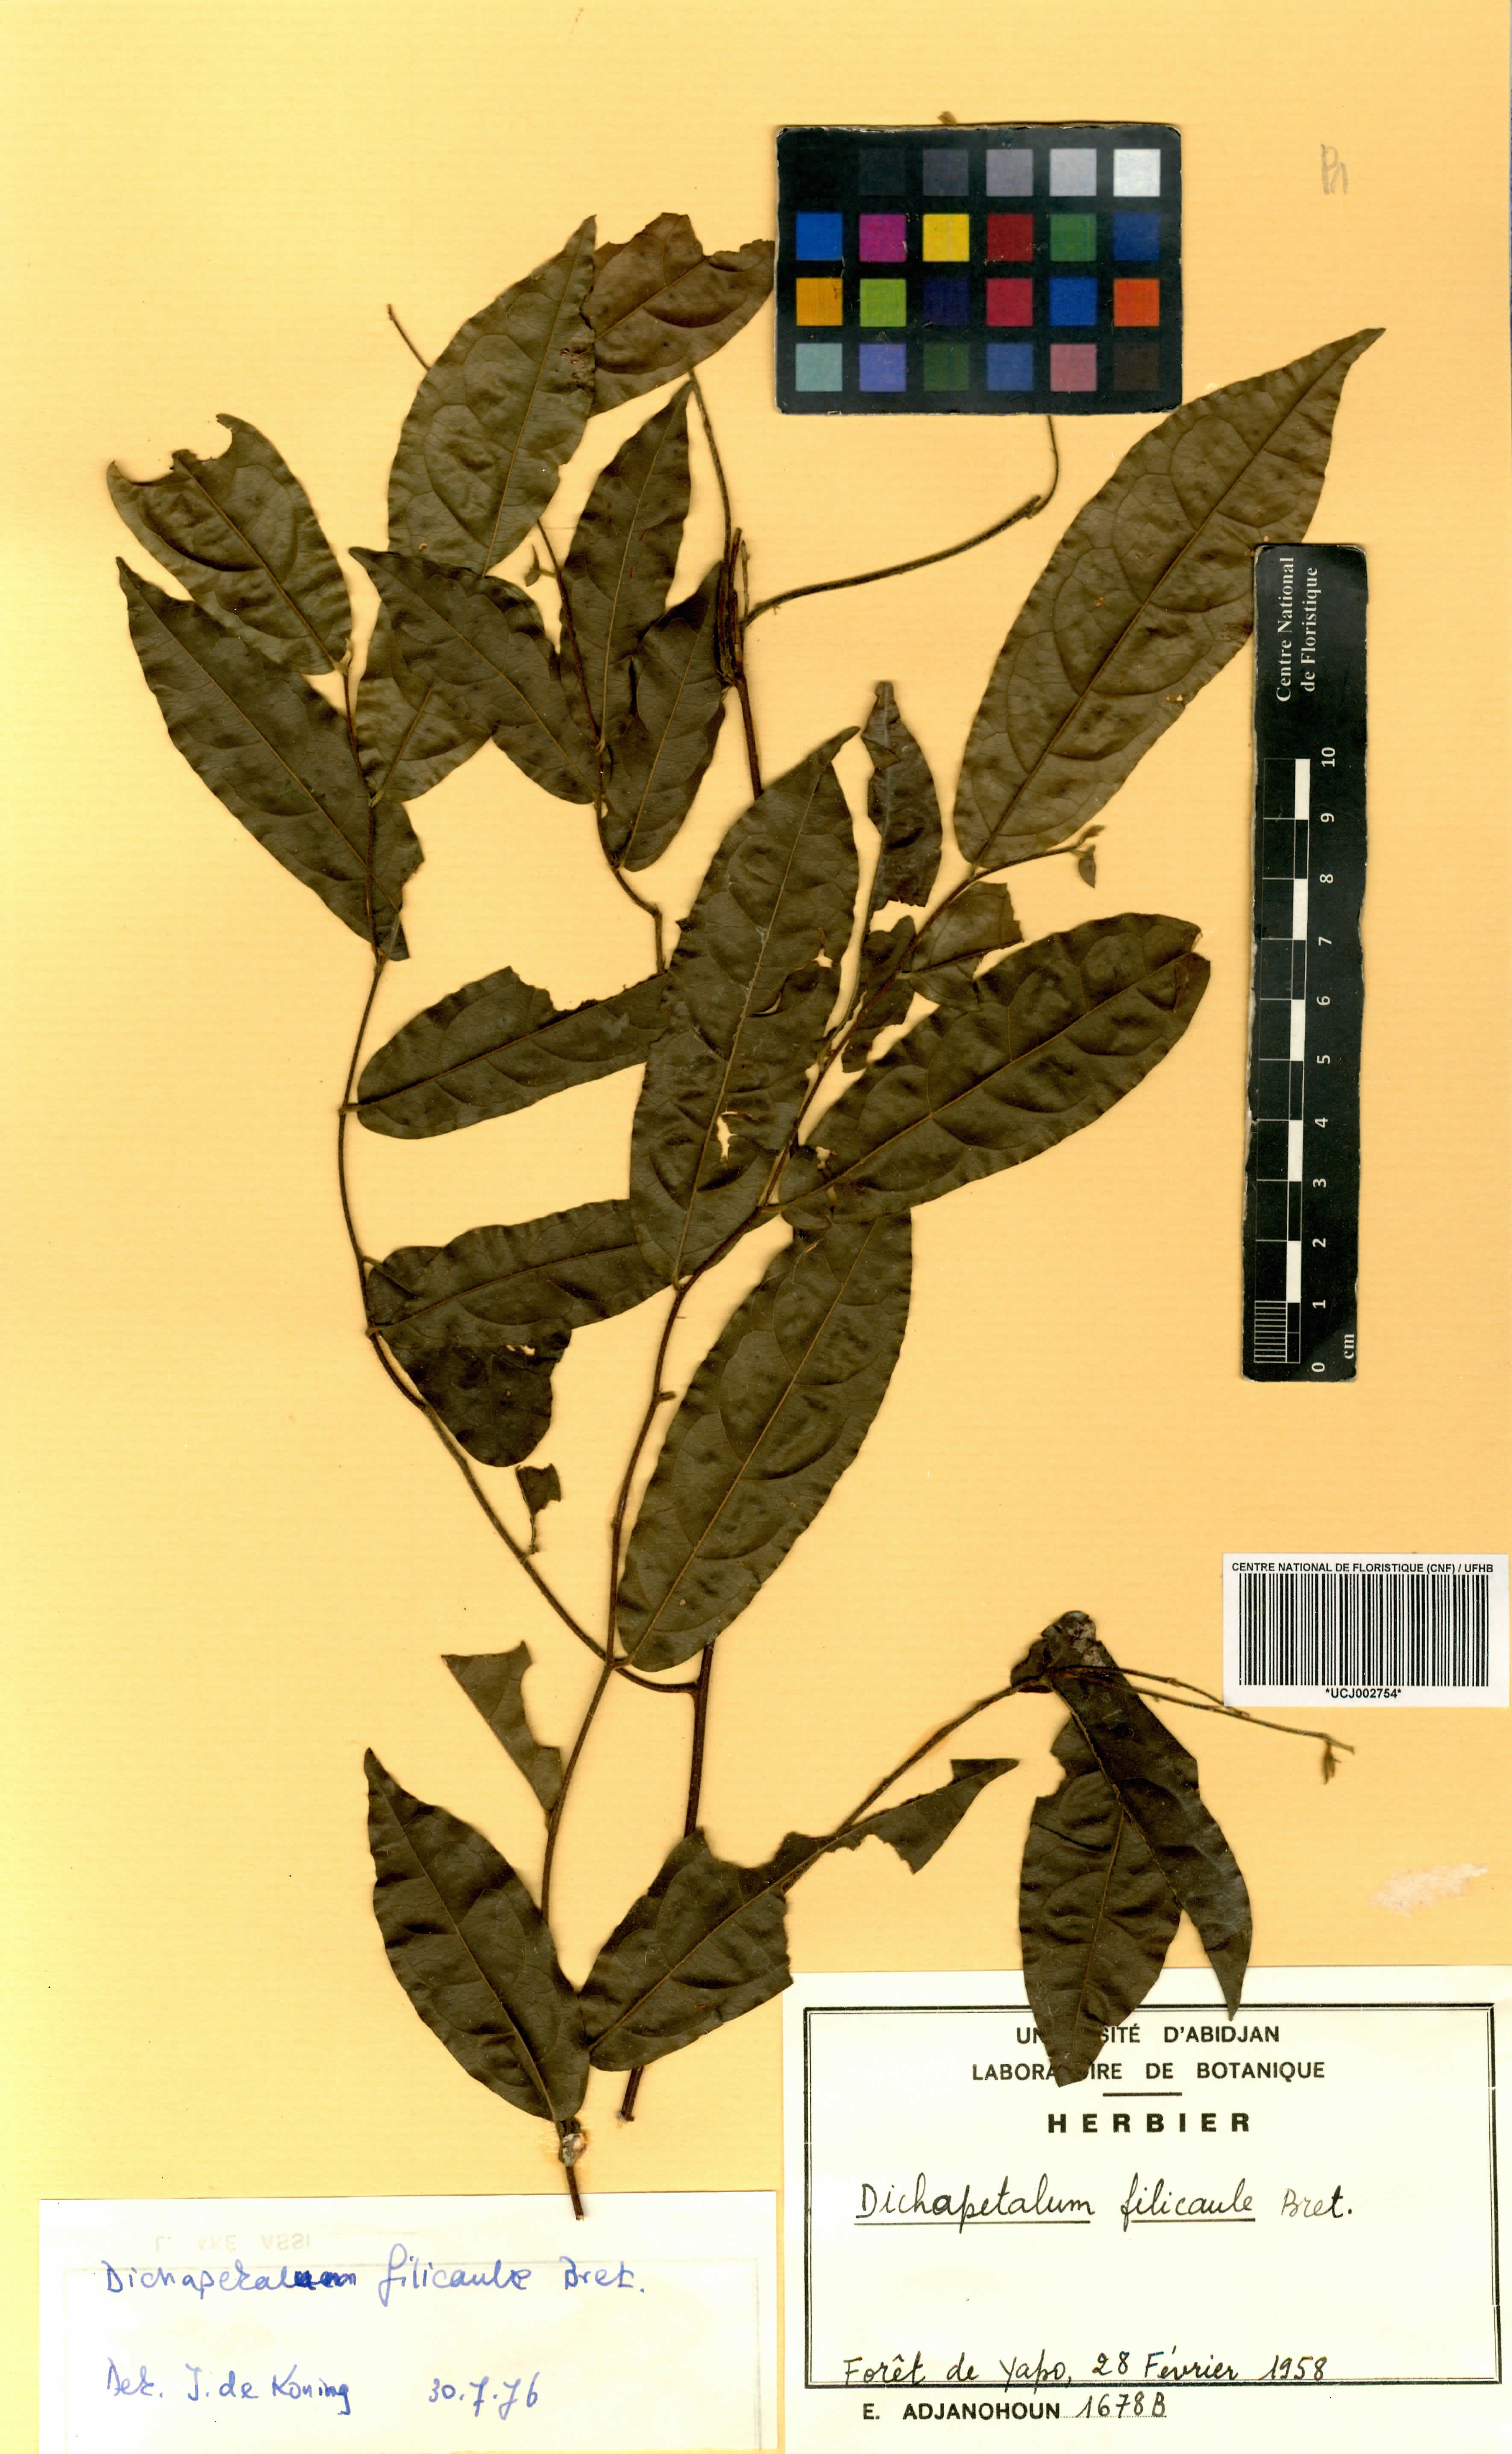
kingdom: Plantae
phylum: Tracheophyta
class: Magnoliopsida
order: Malpighiales
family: Dichapetalaceae
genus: Dichapetalum
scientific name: Dichapetalum filicaule
